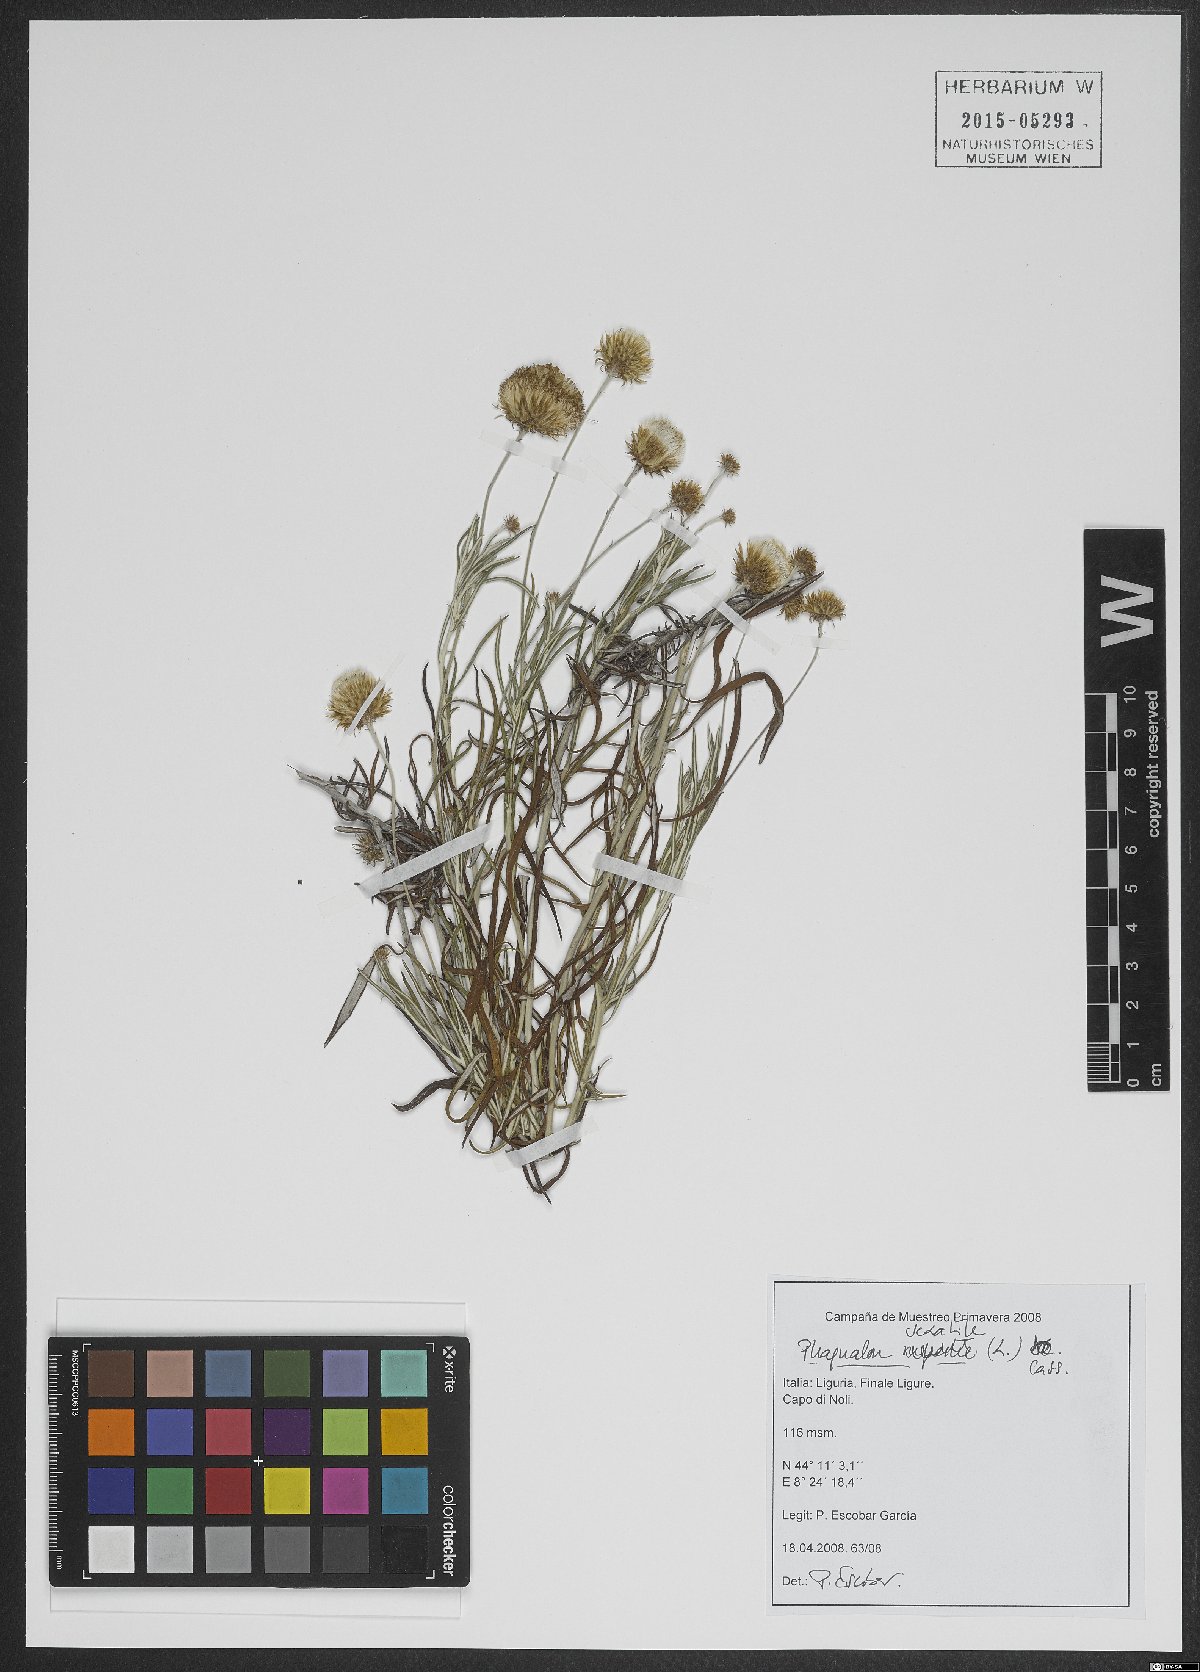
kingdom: Plantae
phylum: Tracheophyta
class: Magnoliopsida
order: Asterales
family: Asteraceae
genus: Phagnalon
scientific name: Phagnalon saxatile
